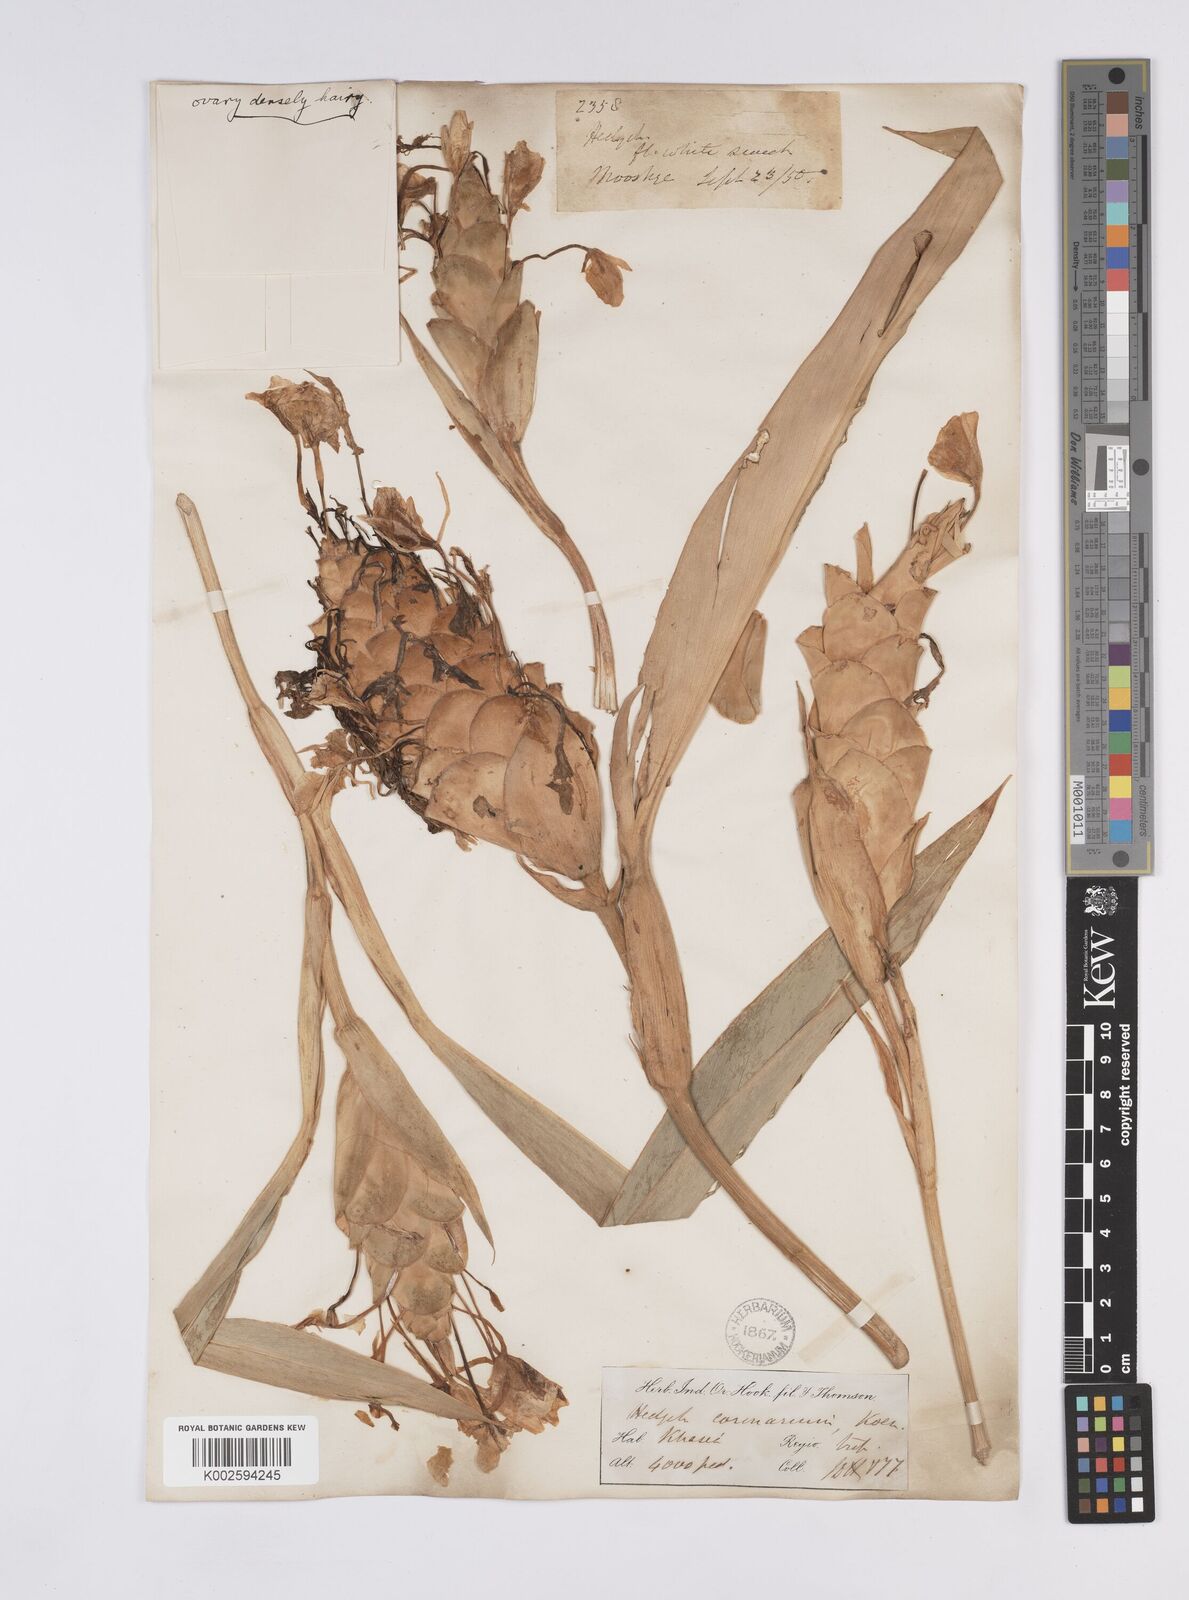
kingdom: Plantae
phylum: Tracheophyta
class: Liliopsida
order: Zingiberales
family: Zingiberaceae
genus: Hedychium
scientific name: Hedychium coronarium
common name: White garland-lily
